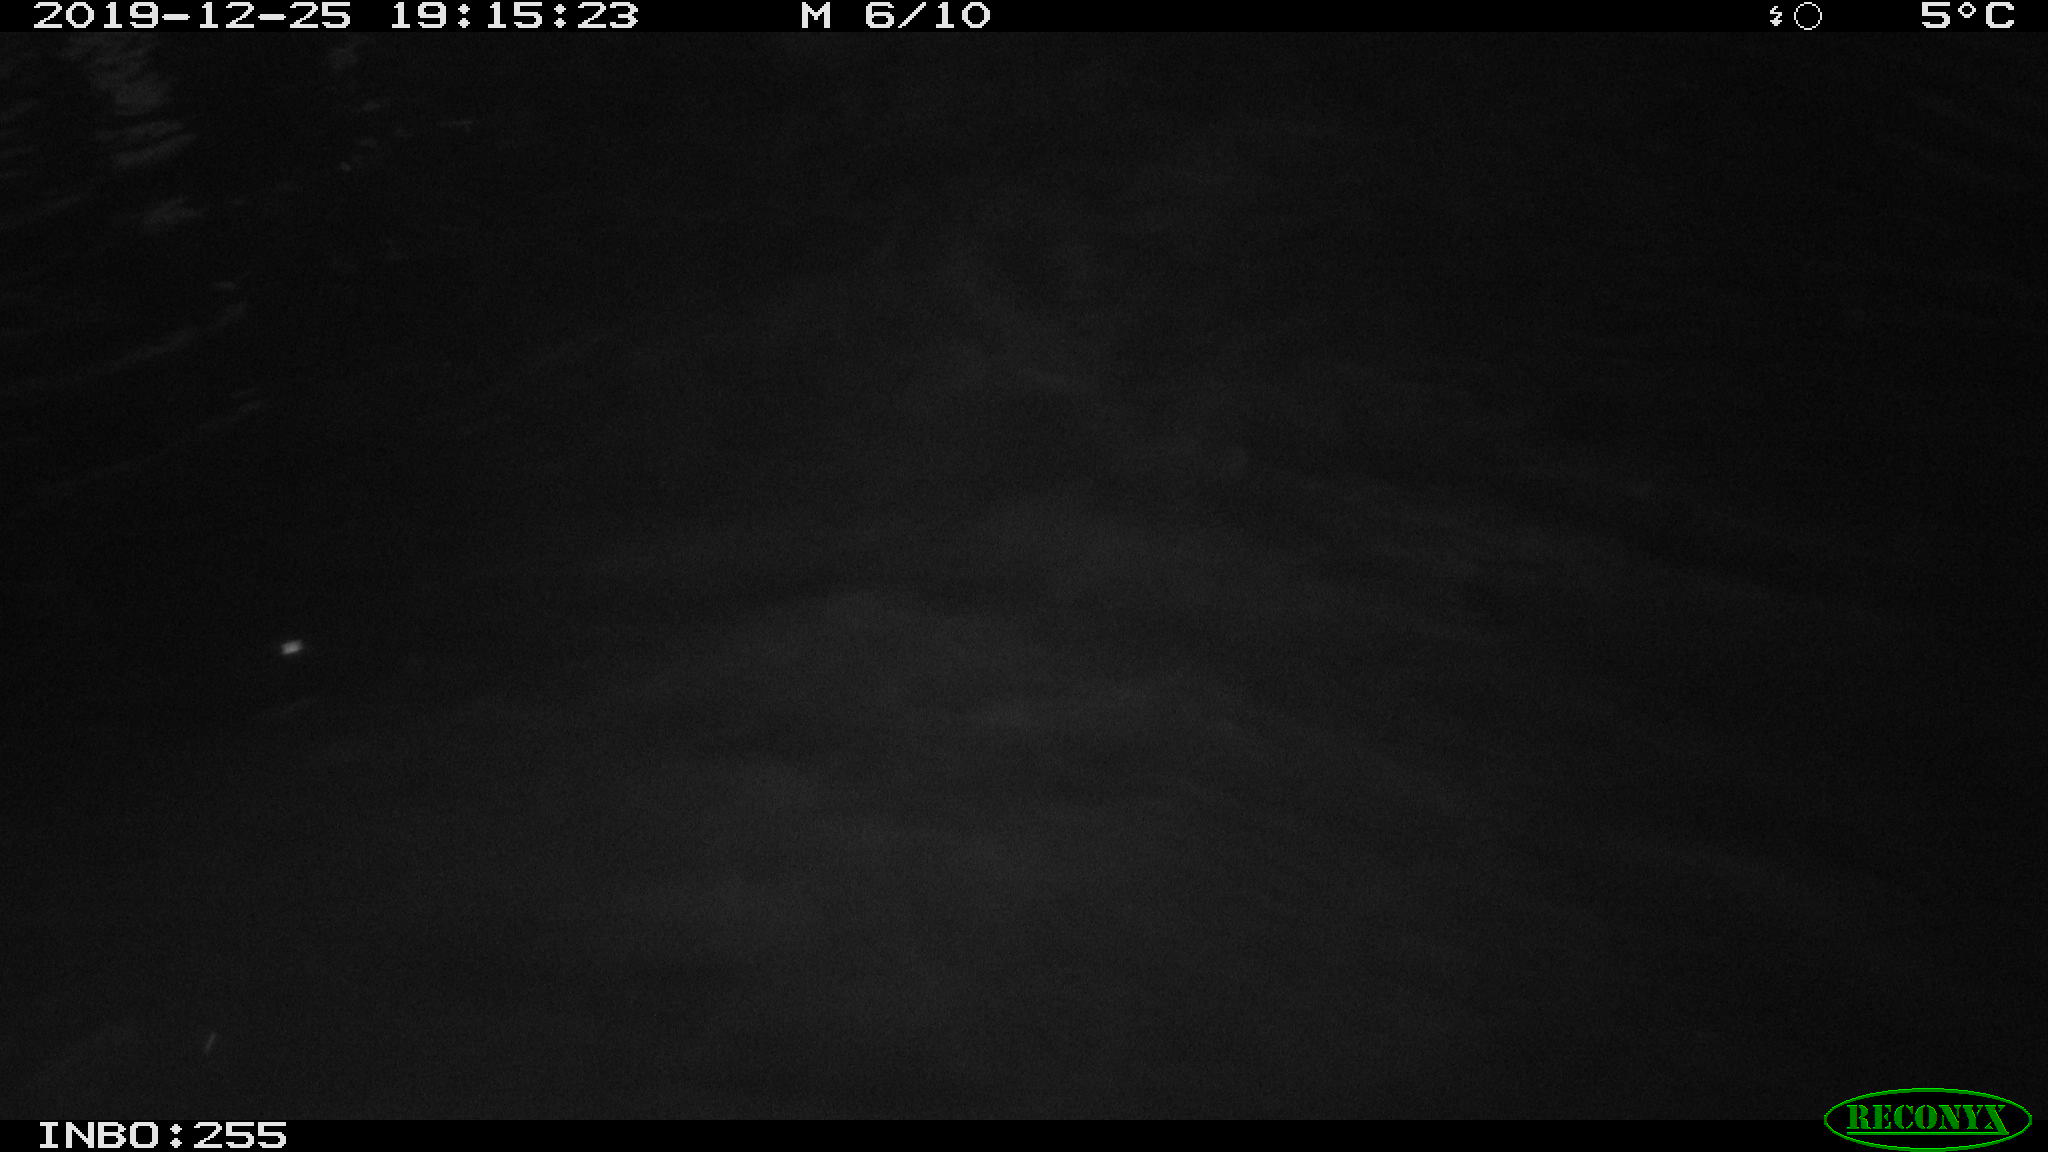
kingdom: Animalia
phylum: Chordata
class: Mammalia
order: Rodentia
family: Cricetidae
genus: Ondatra
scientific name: Ondatra zibethicus
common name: Muskrat
